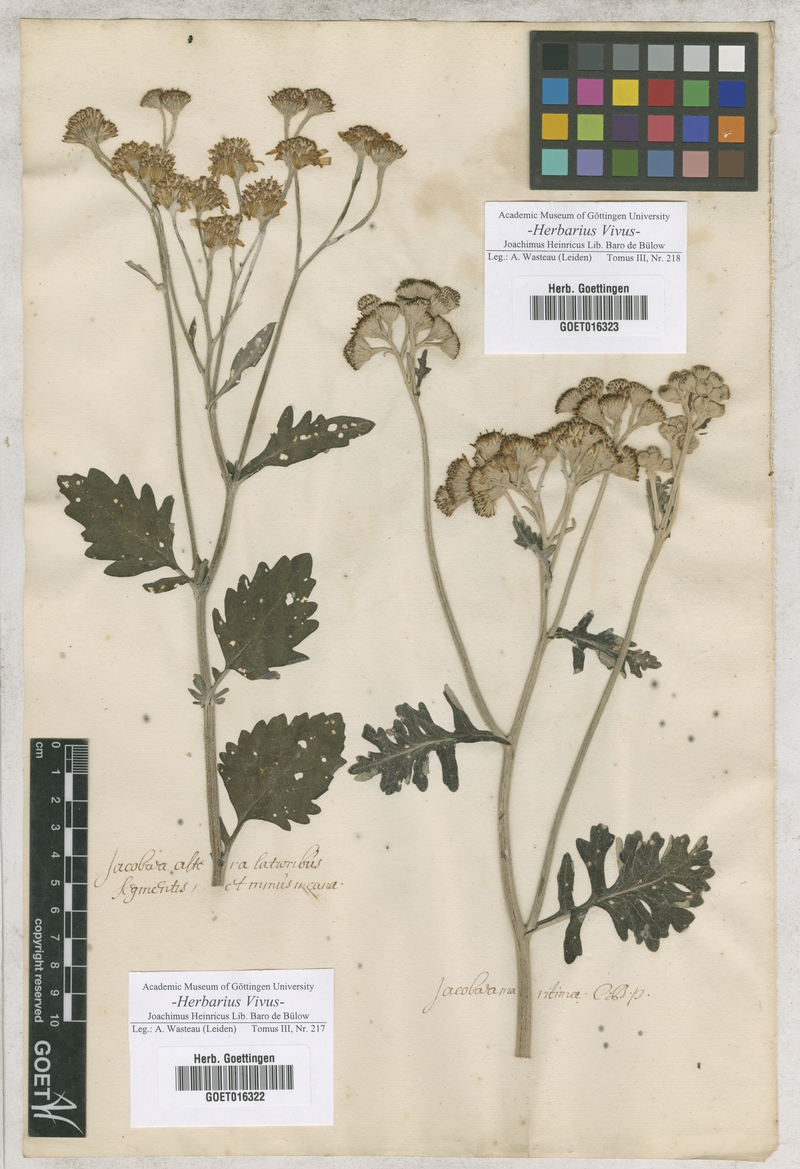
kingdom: Plantae
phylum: Tracheophyta
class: Magnoliopsida
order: Asterales
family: Asteraceae
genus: Jacobaea
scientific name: Jacobaea
